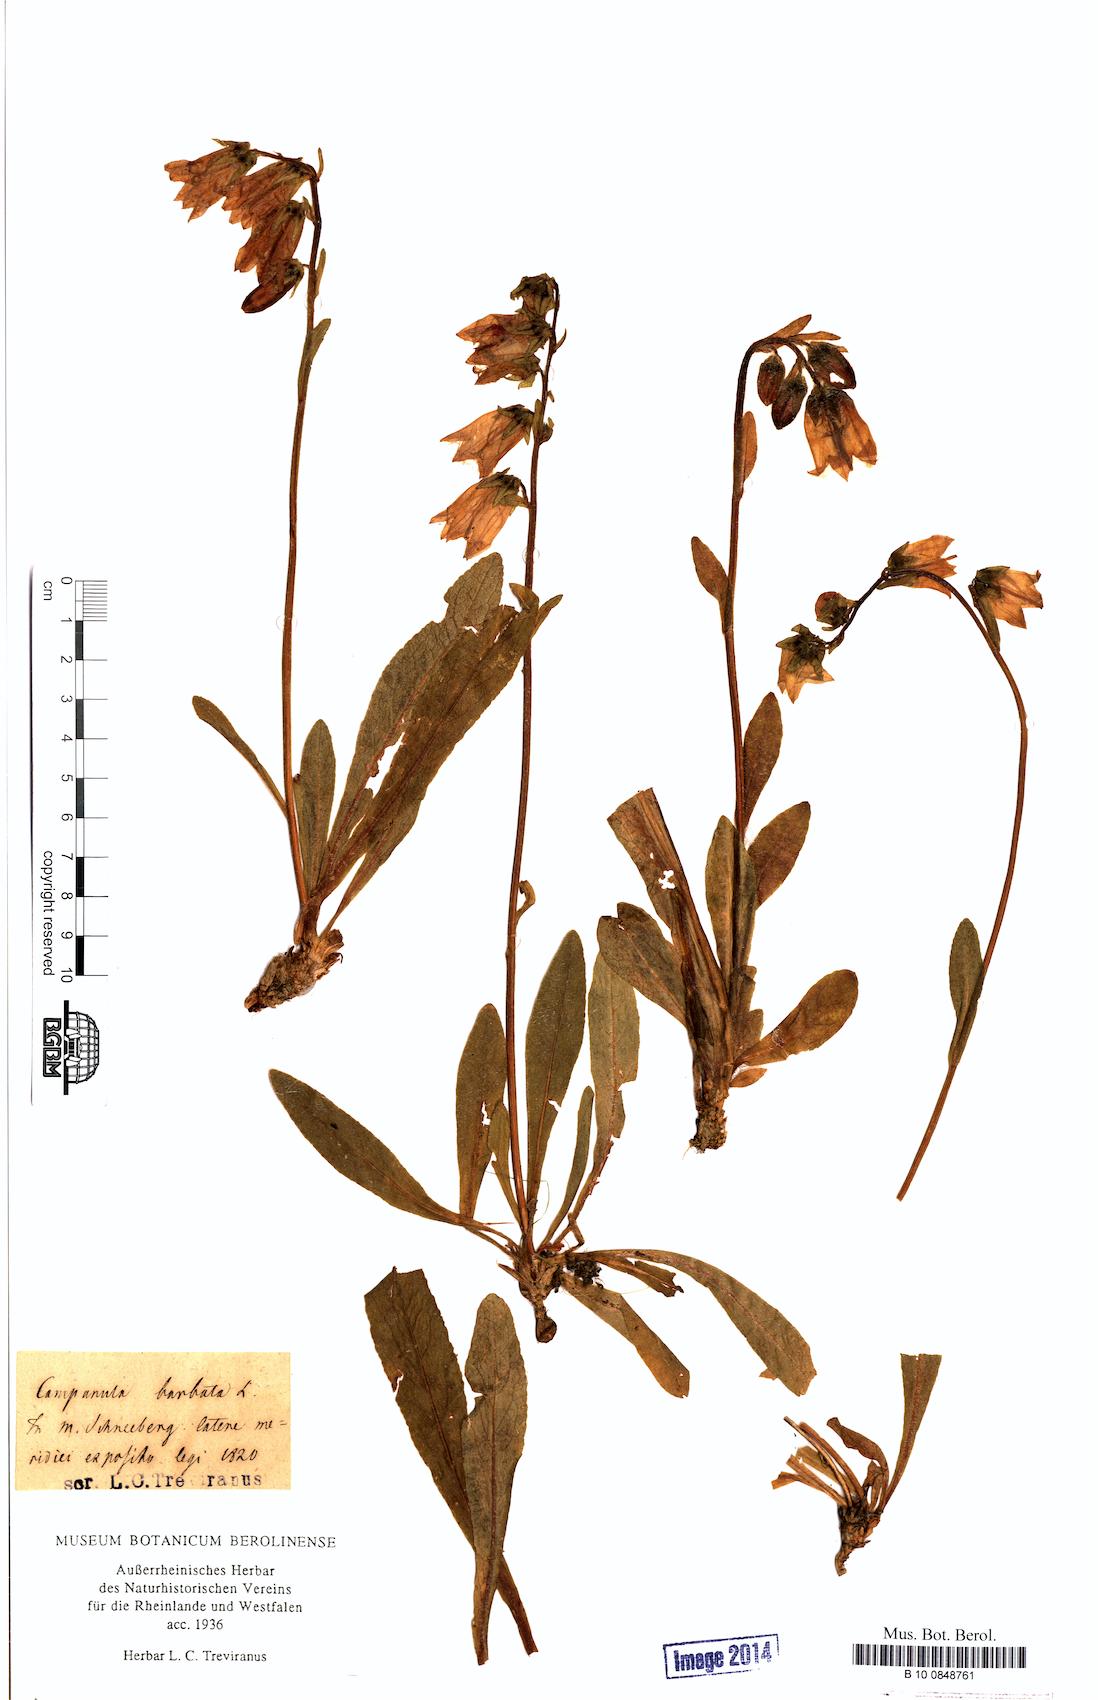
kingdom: Plantae
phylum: Tracheophyta
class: Magnoliopsida
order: Asterales
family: Campanulaceae
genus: Campanula
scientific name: Campanula barbata
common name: Bearded bellflower
